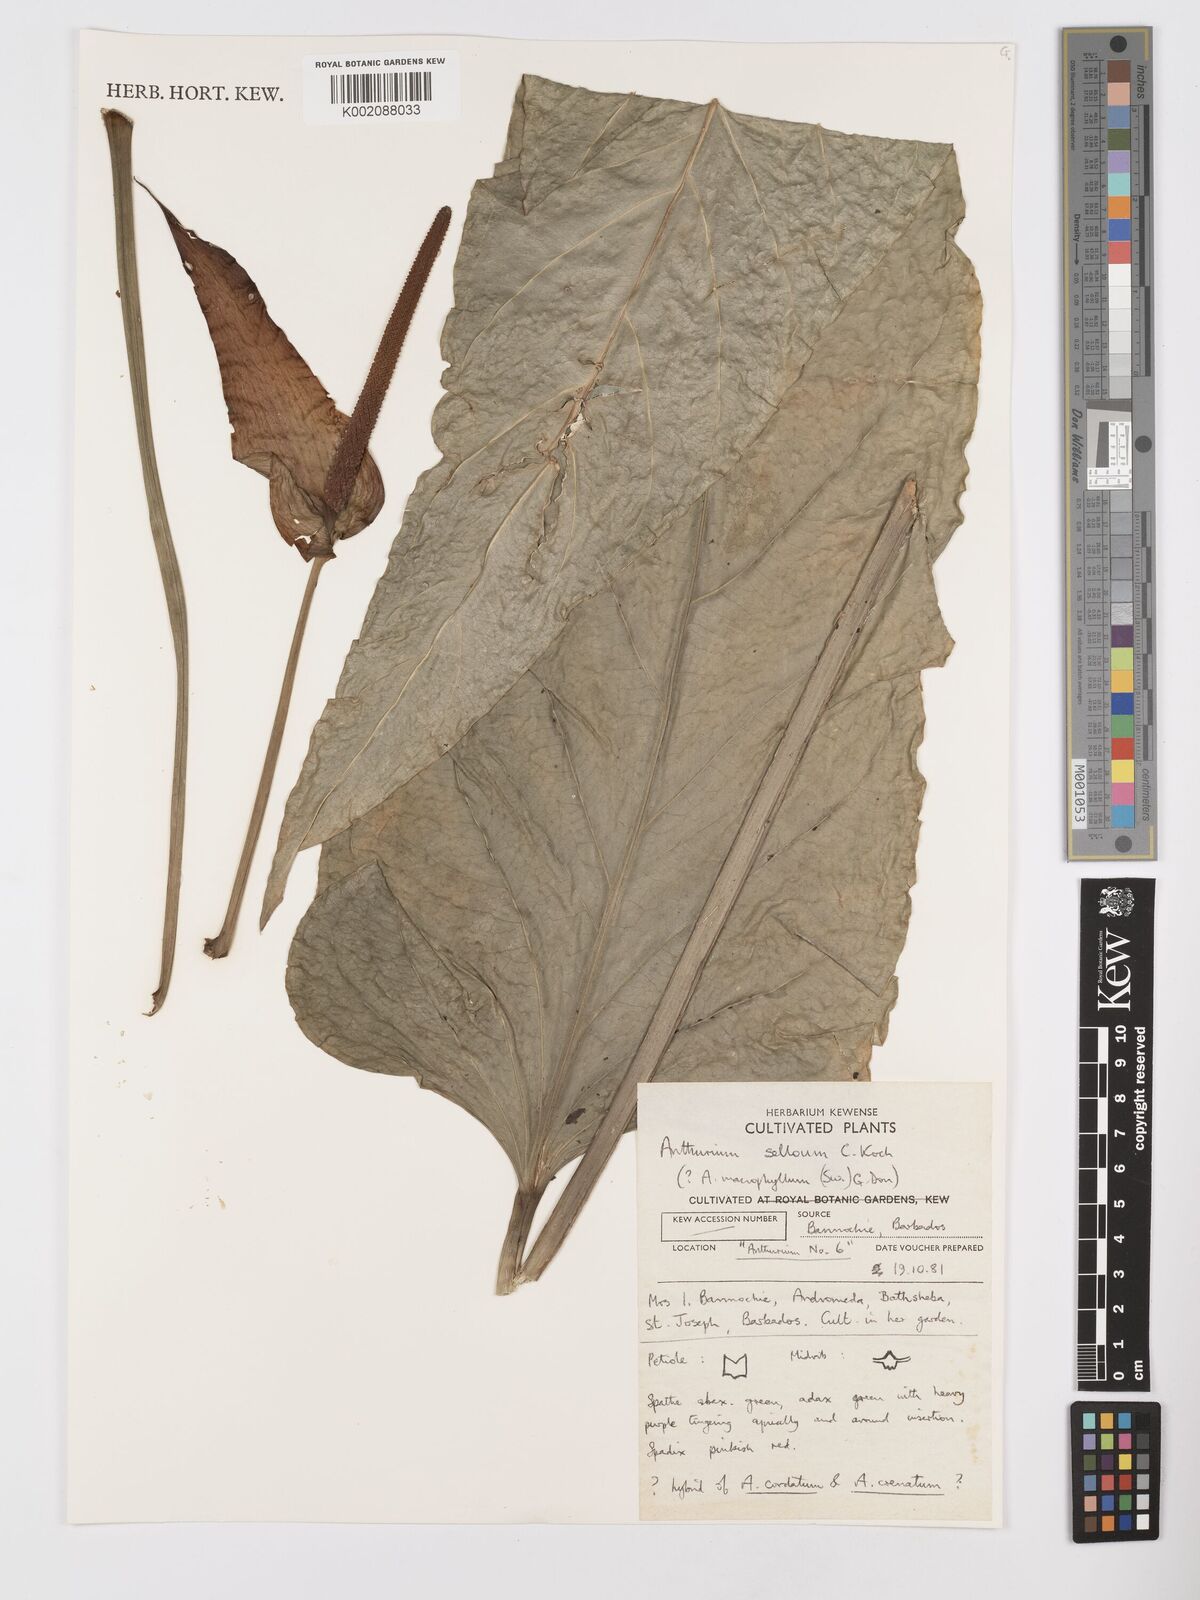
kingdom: Plantae
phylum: Tracheophyta
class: Liliopsida
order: Alismatales
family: Araceae
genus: Anthurium
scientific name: Anthurium
